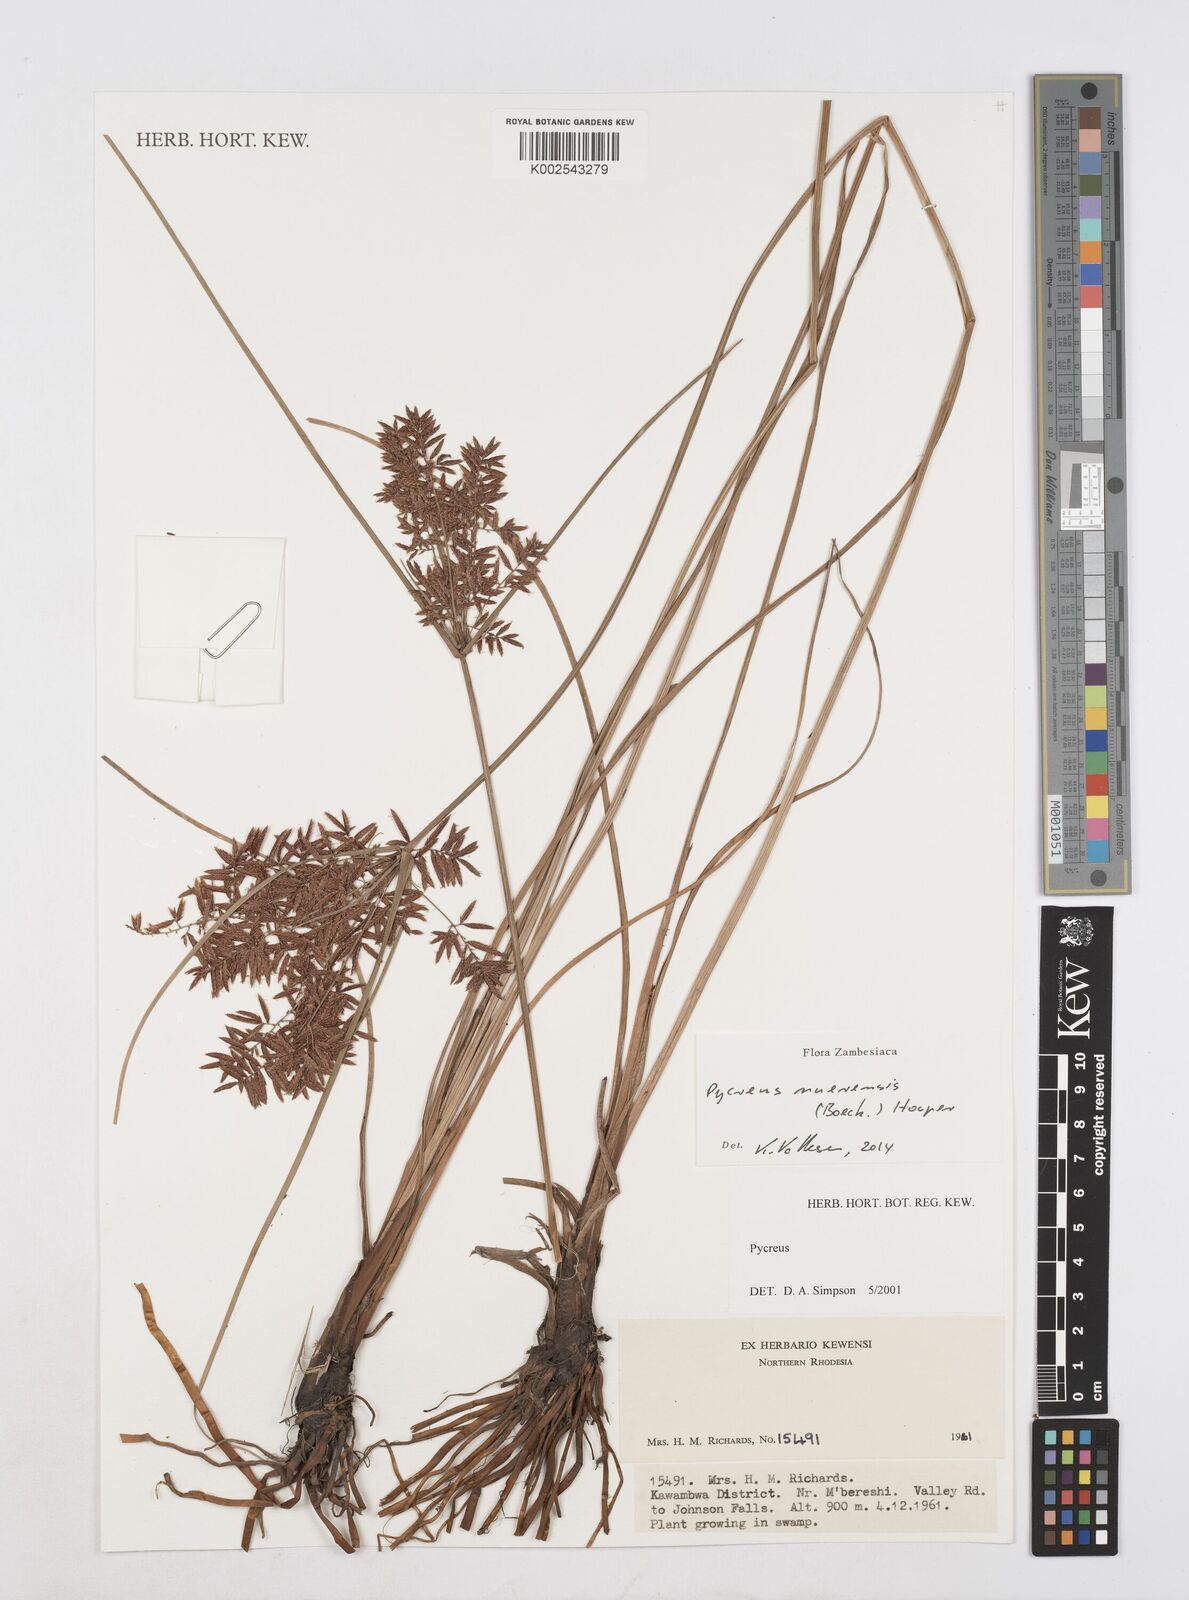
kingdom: Plantae
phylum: Tracheophyta
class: Liliopsida
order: Poales
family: Cyperaceae
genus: Cyperus
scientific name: Cyperus nuerensis
